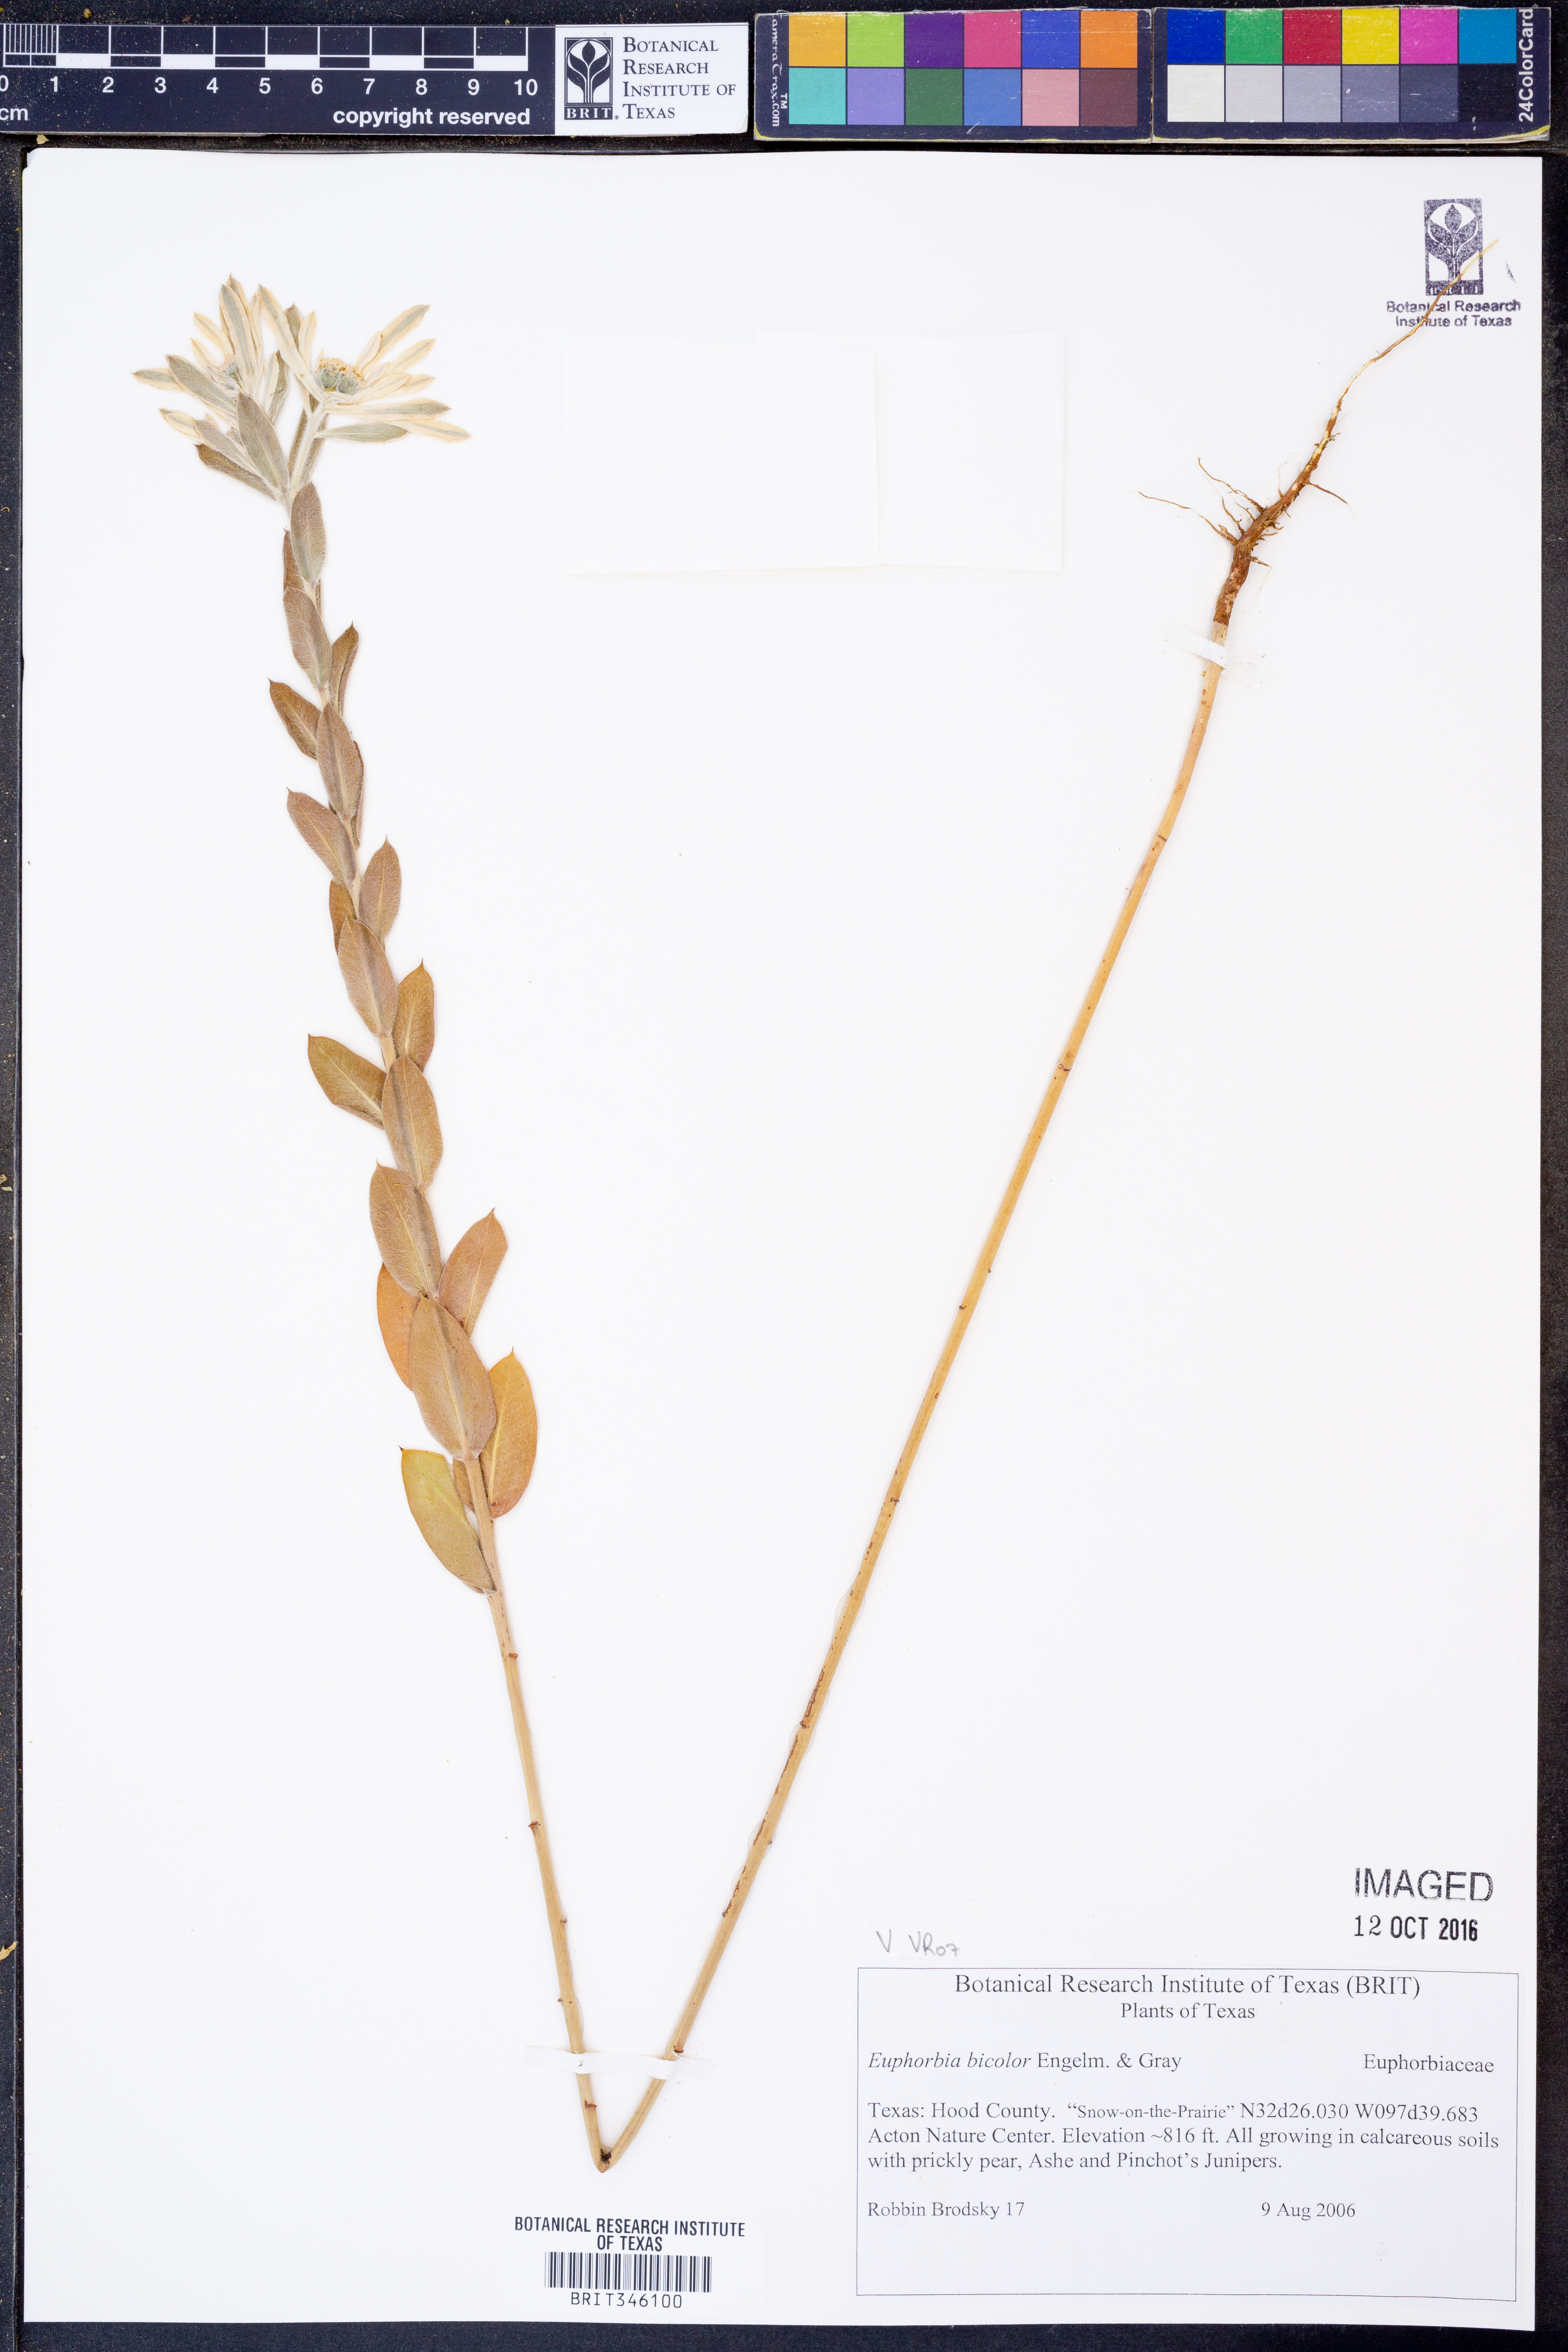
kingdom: Plantae
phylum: Tracheophyta
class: Magnoliopsida
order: Malpighiales
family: Euphorbiaceae
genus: Euphorbia
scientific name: Euphorbia bicolor
